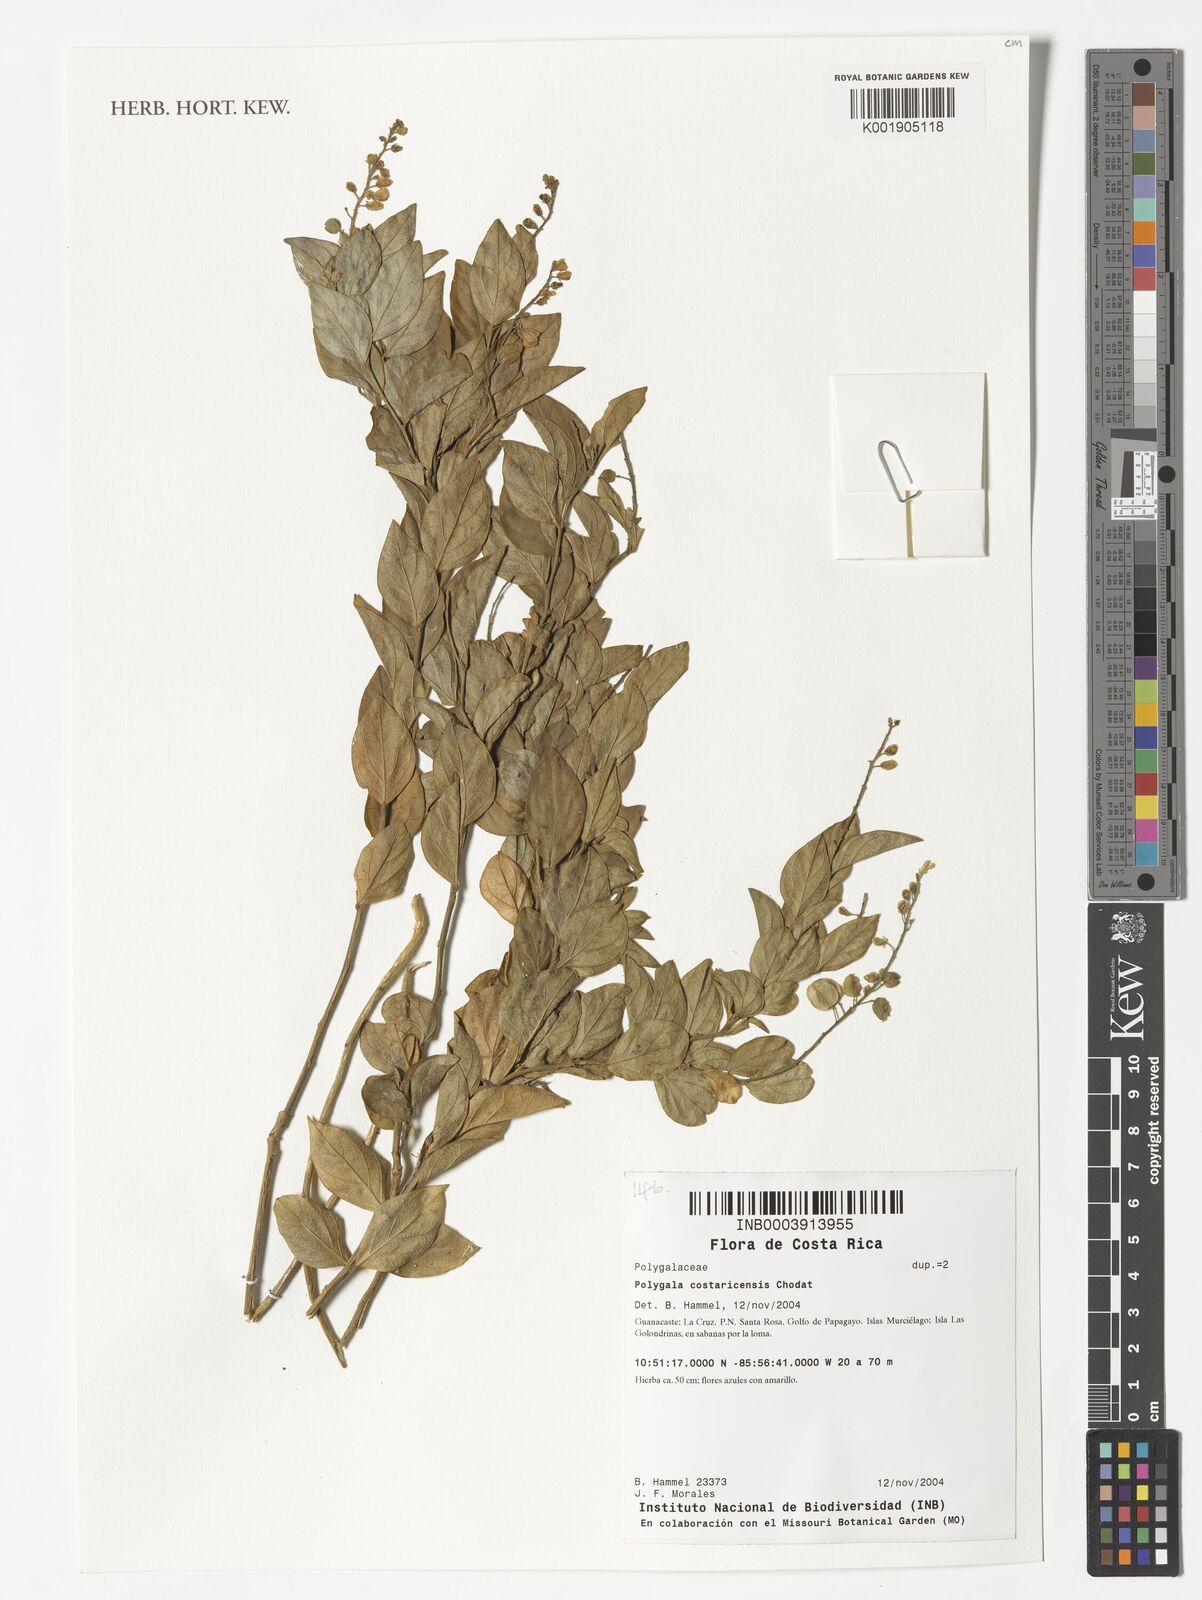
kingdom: Plantae
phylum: Tracheophyta
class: Magnoliopsida
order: Fabales
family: Polygalaceae
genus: Hebecarpa
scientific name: Hebecarpa costaricensis
